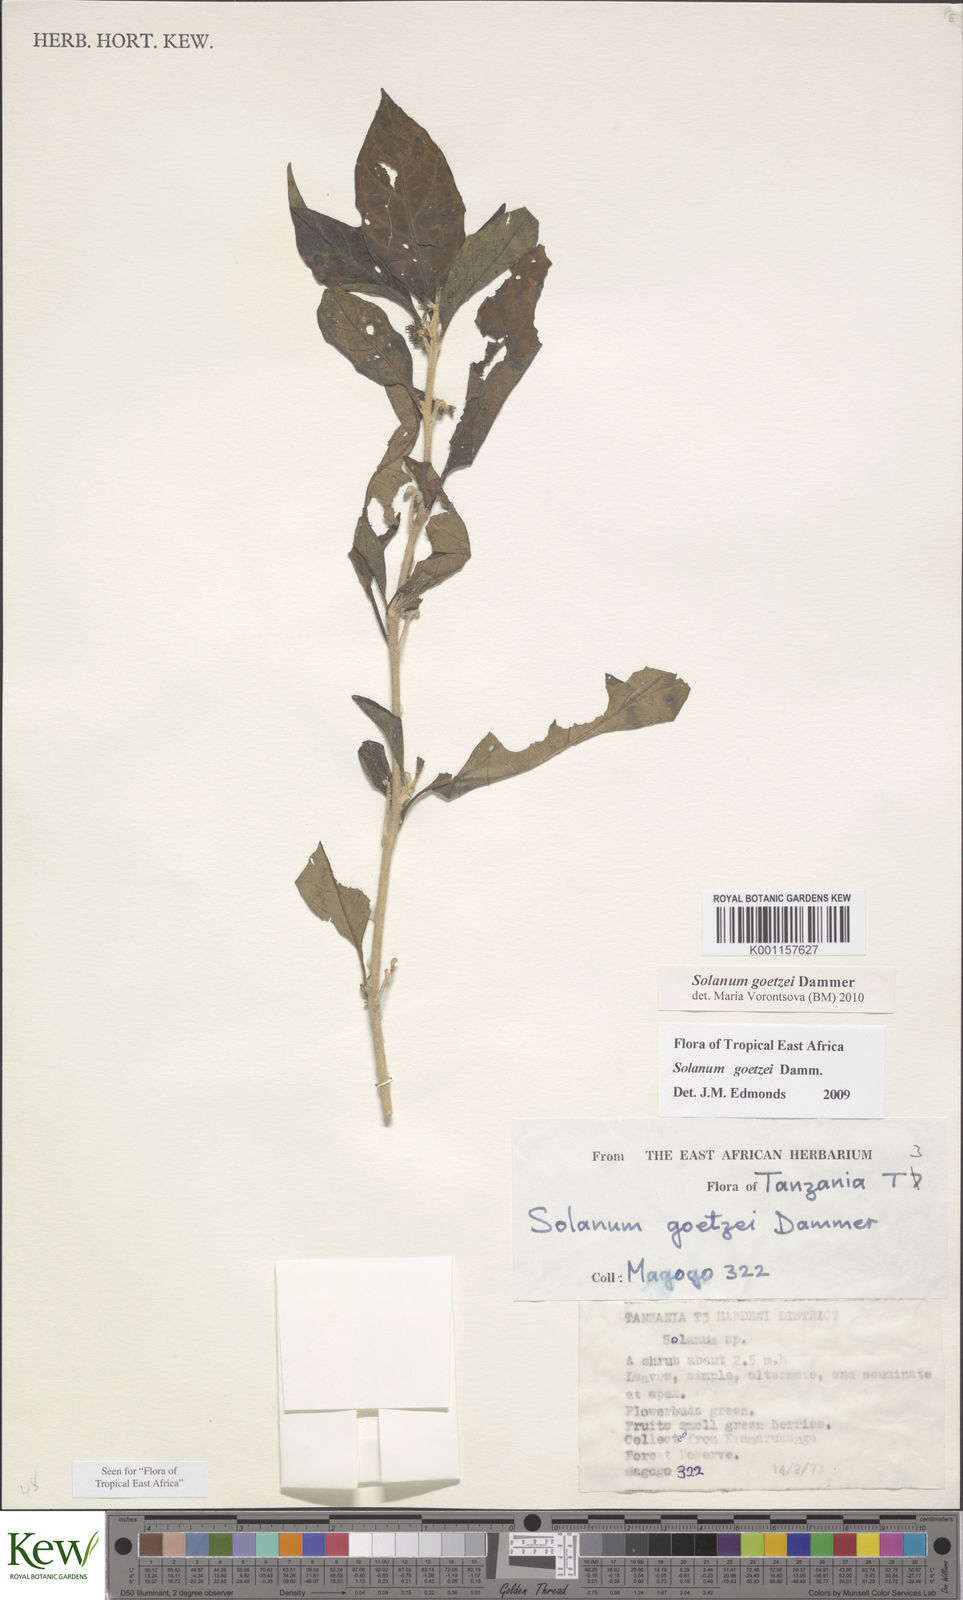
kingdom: Plantae
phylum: Tracheophyta
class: Magnoliopsida
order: Solanales
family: Solanaceae
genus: Solanum
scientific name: Solanum goetzei
